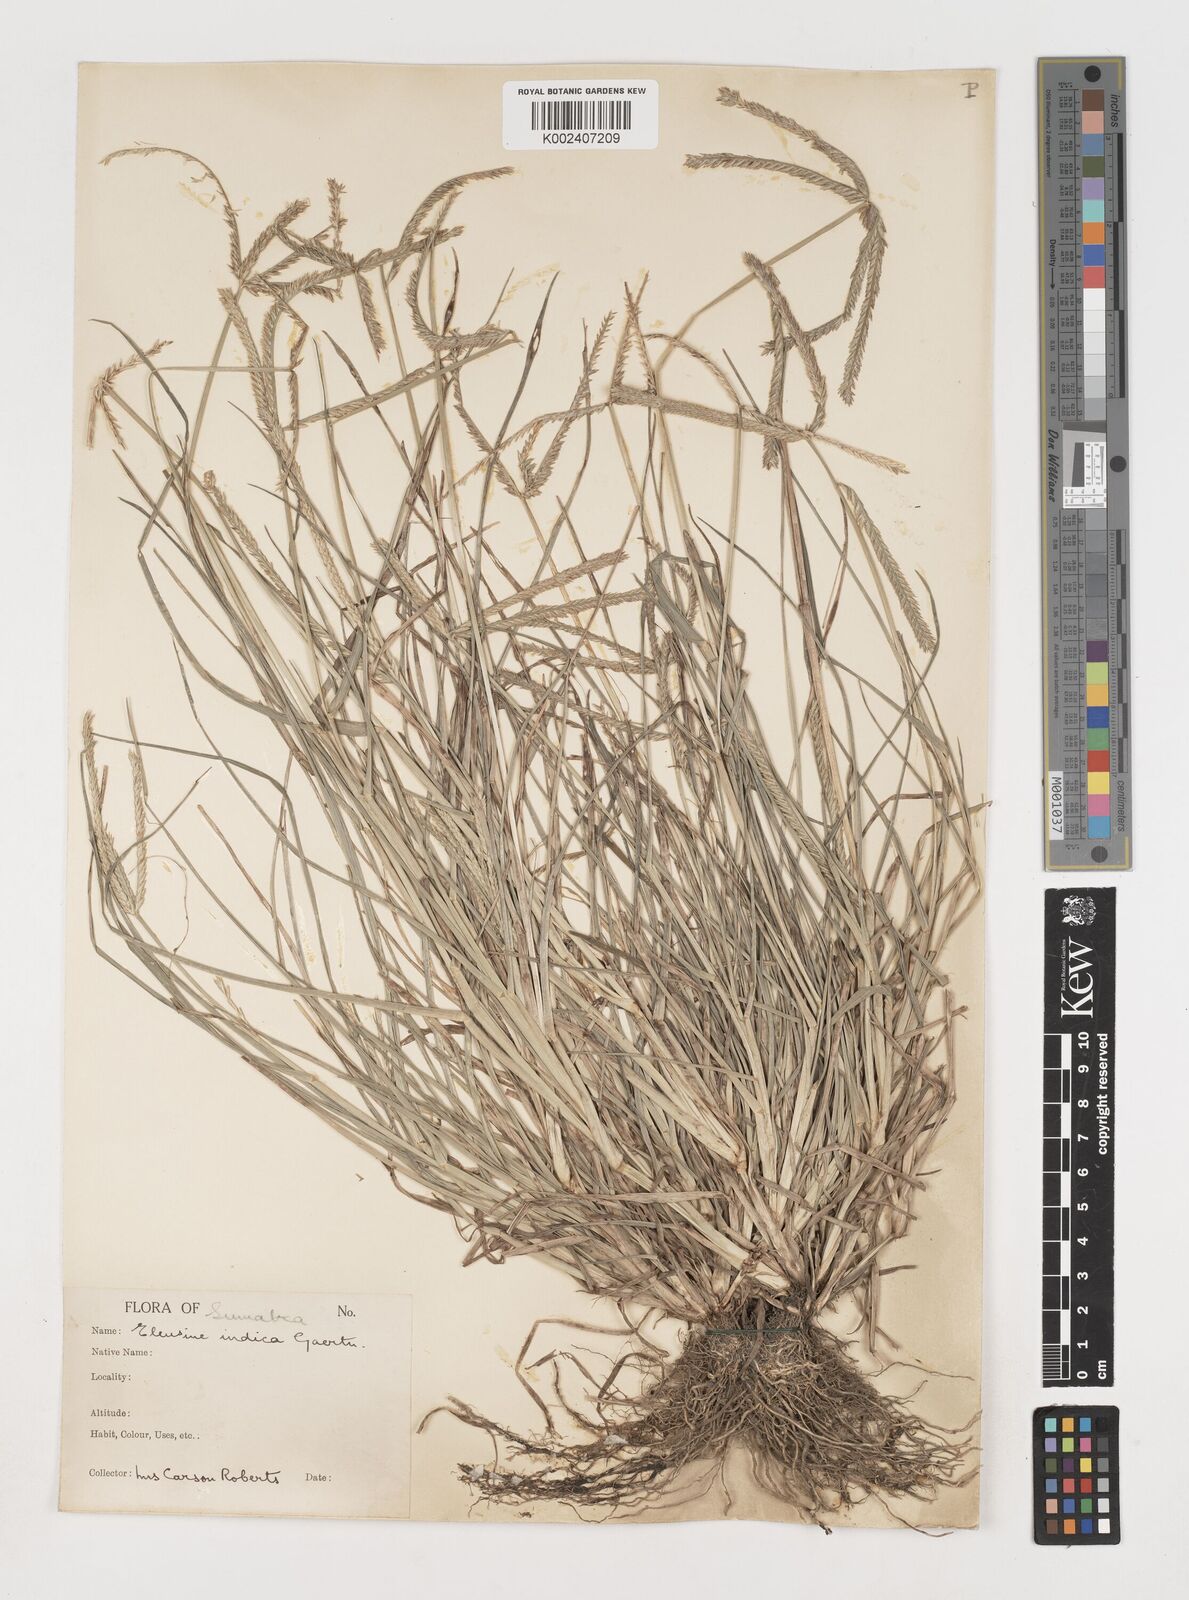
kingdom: Plantae
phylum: Tracheophyta
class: Liliopsida
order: Poales
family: Poaceae
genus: Eleusine
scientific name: Eleusine indica
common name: Yard-grass
